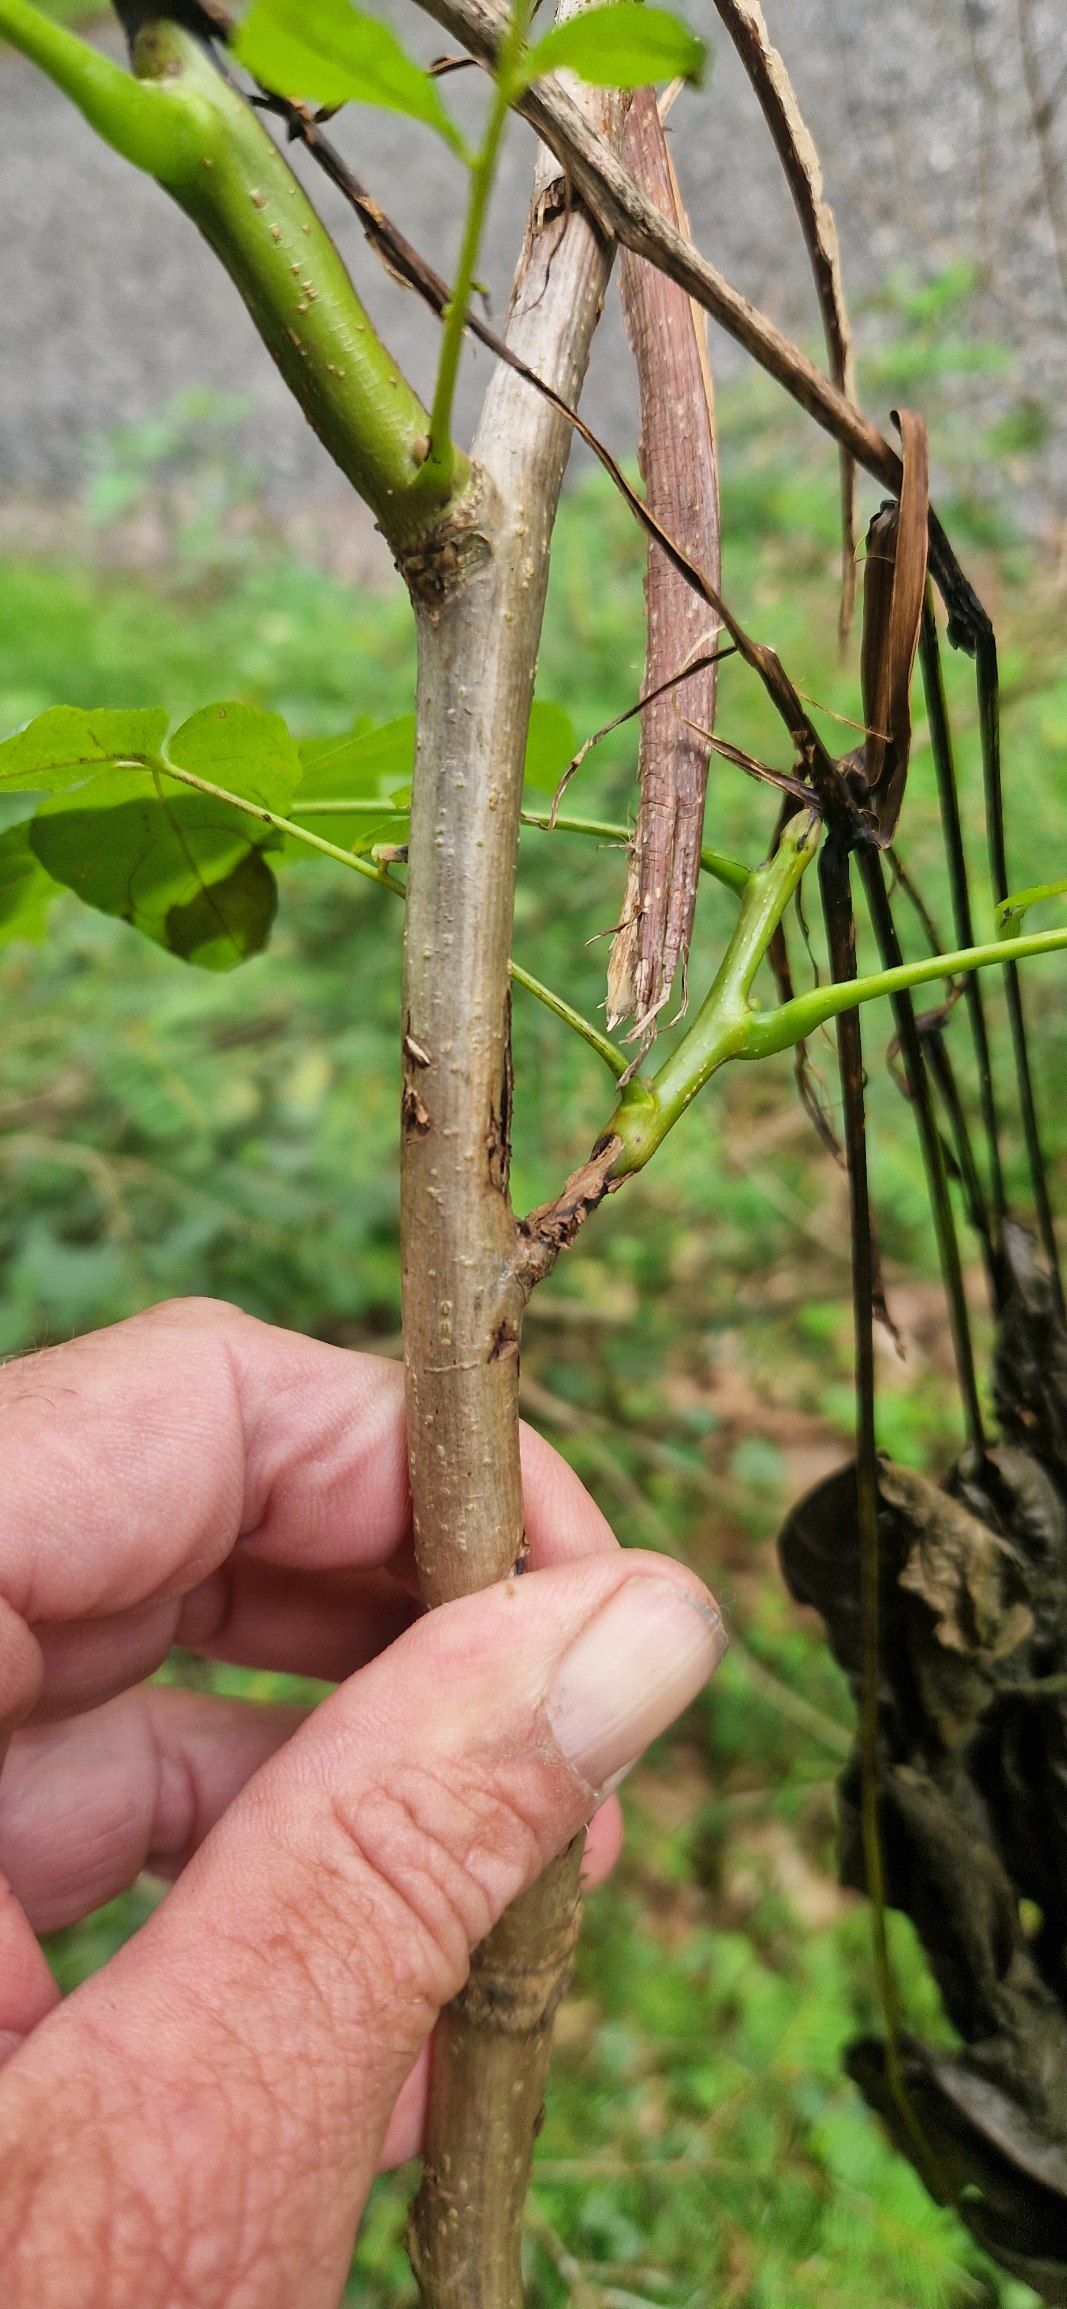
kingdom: Plantae
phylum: Tracheophyta
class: Magnoliopsida
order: Fagales
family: Juglandaceae
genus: Juglans
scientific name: Juglans regia
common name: Almindelig valnød
